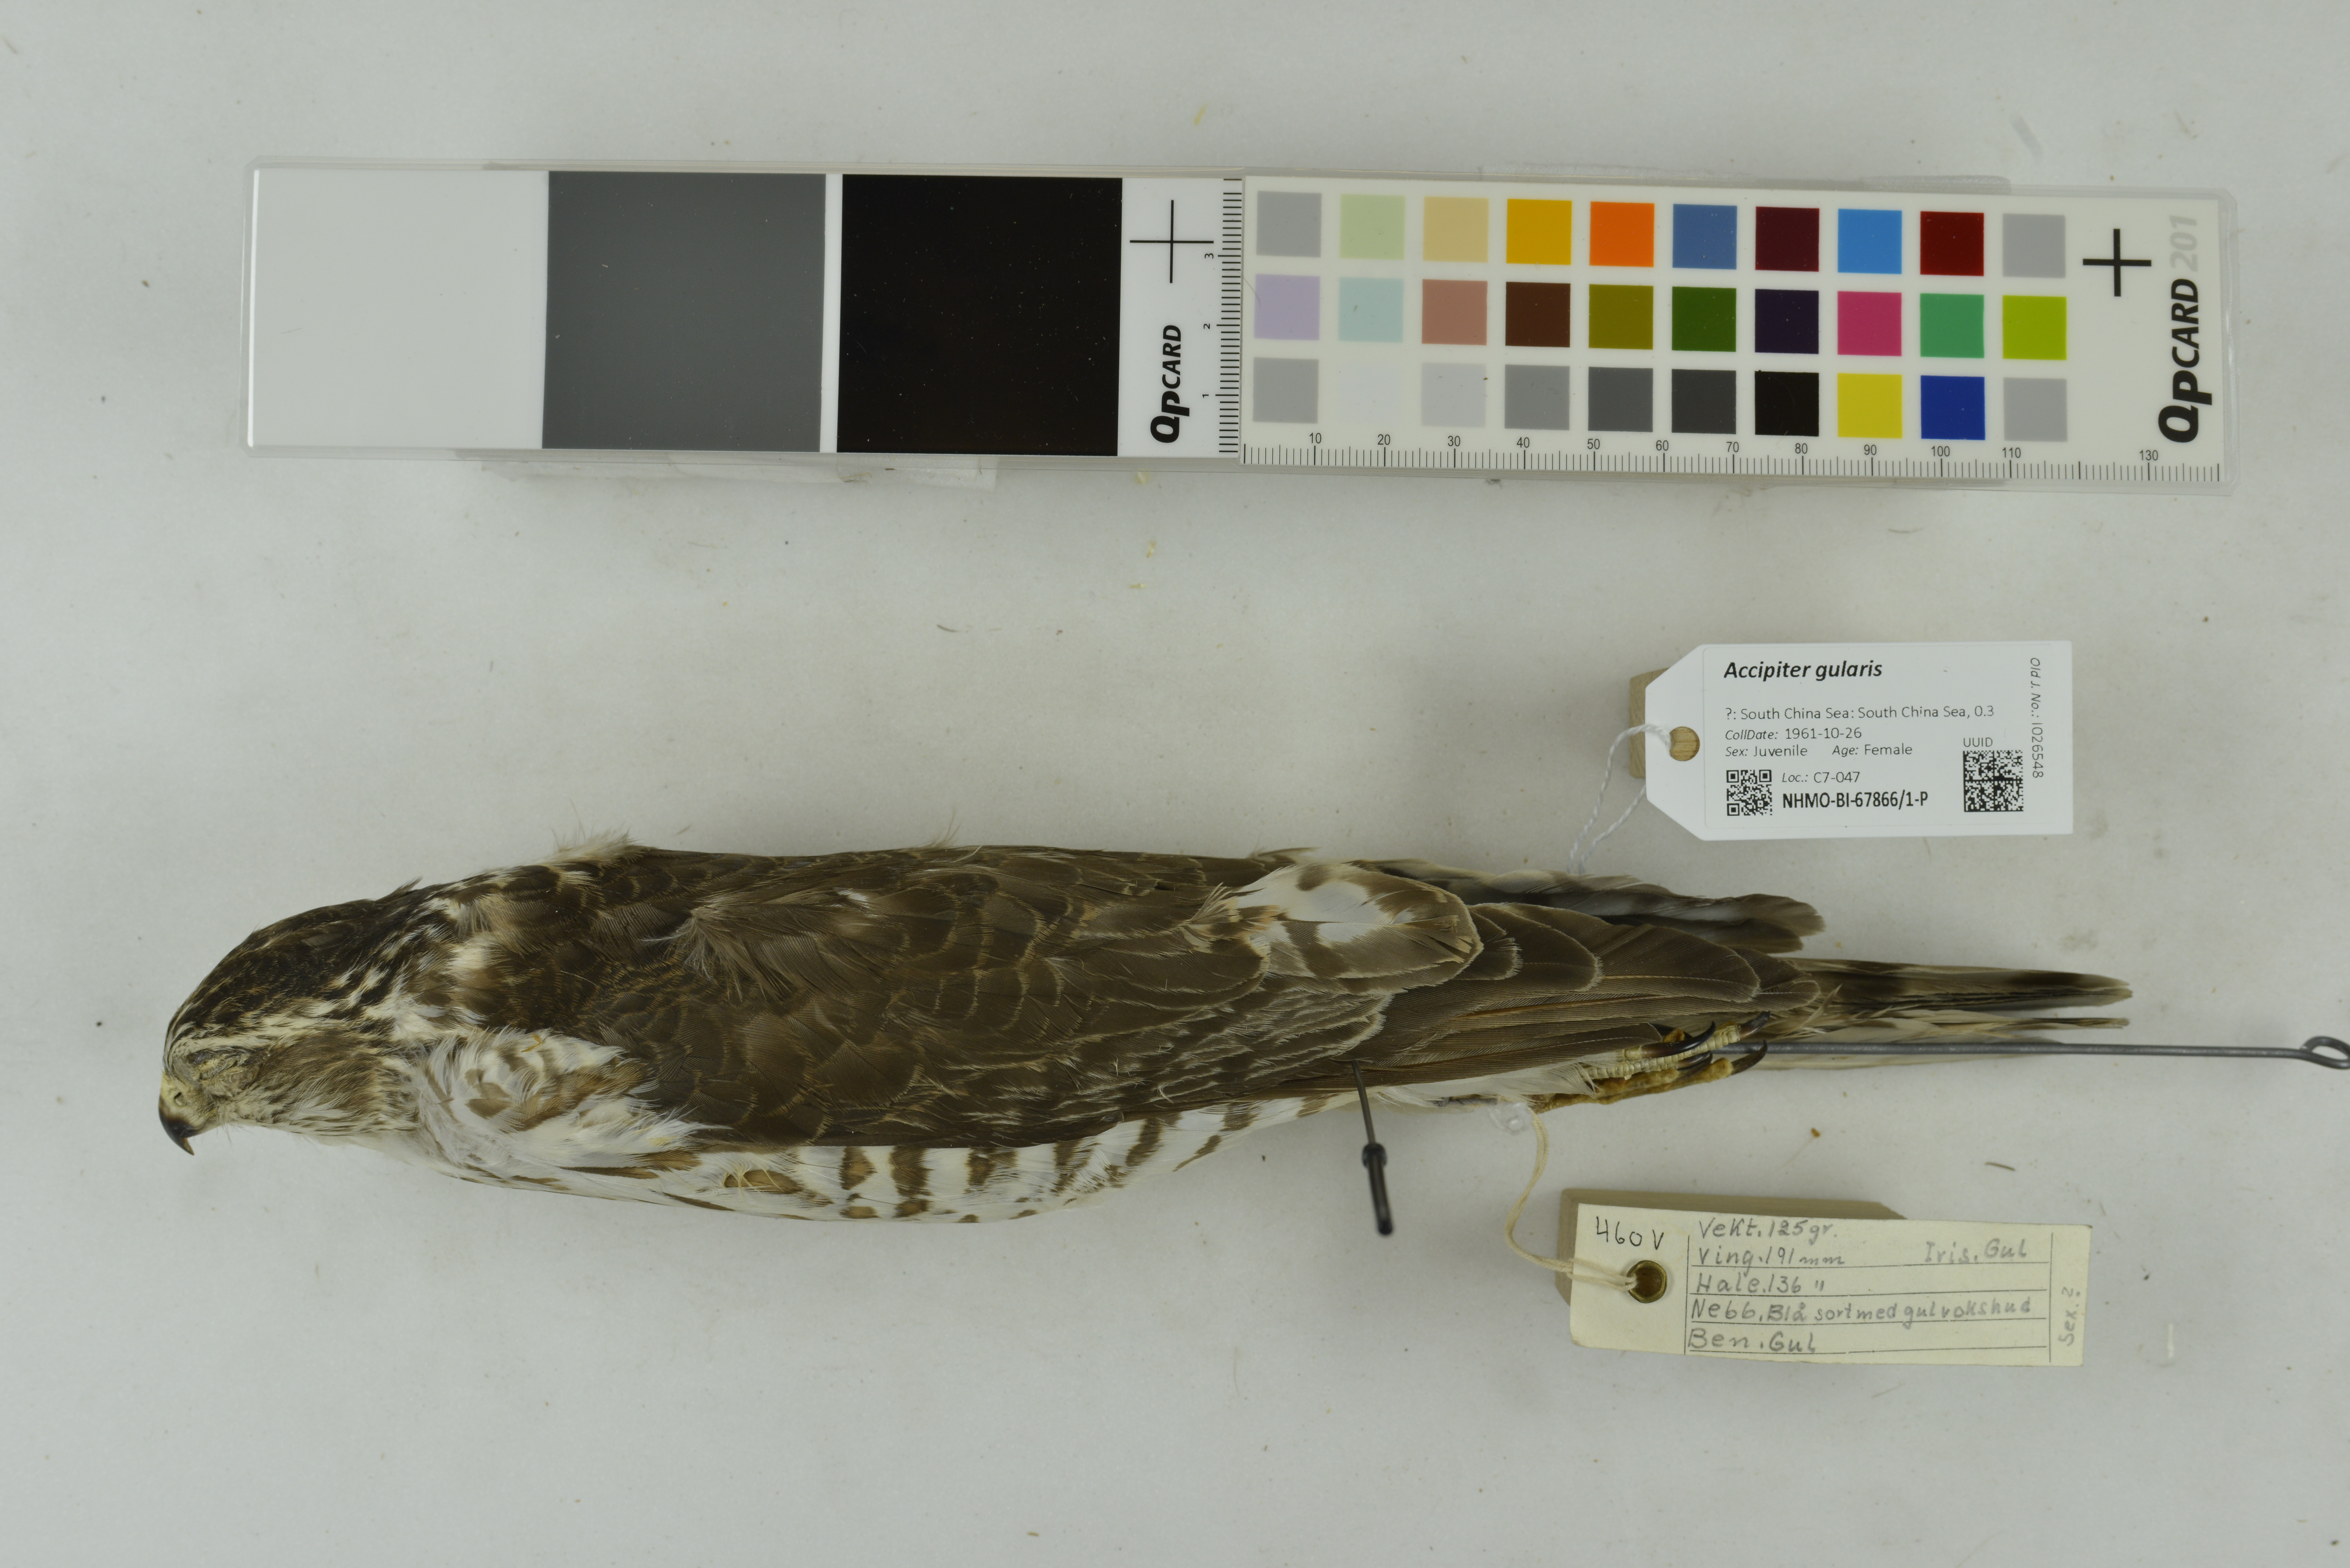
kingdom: Animalia
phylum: Chordata
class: Aves
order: Accipitriformes
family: Accipitridae
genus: Accipiter
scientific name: Accipiter gularis
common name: Japanese sparrowhawk
